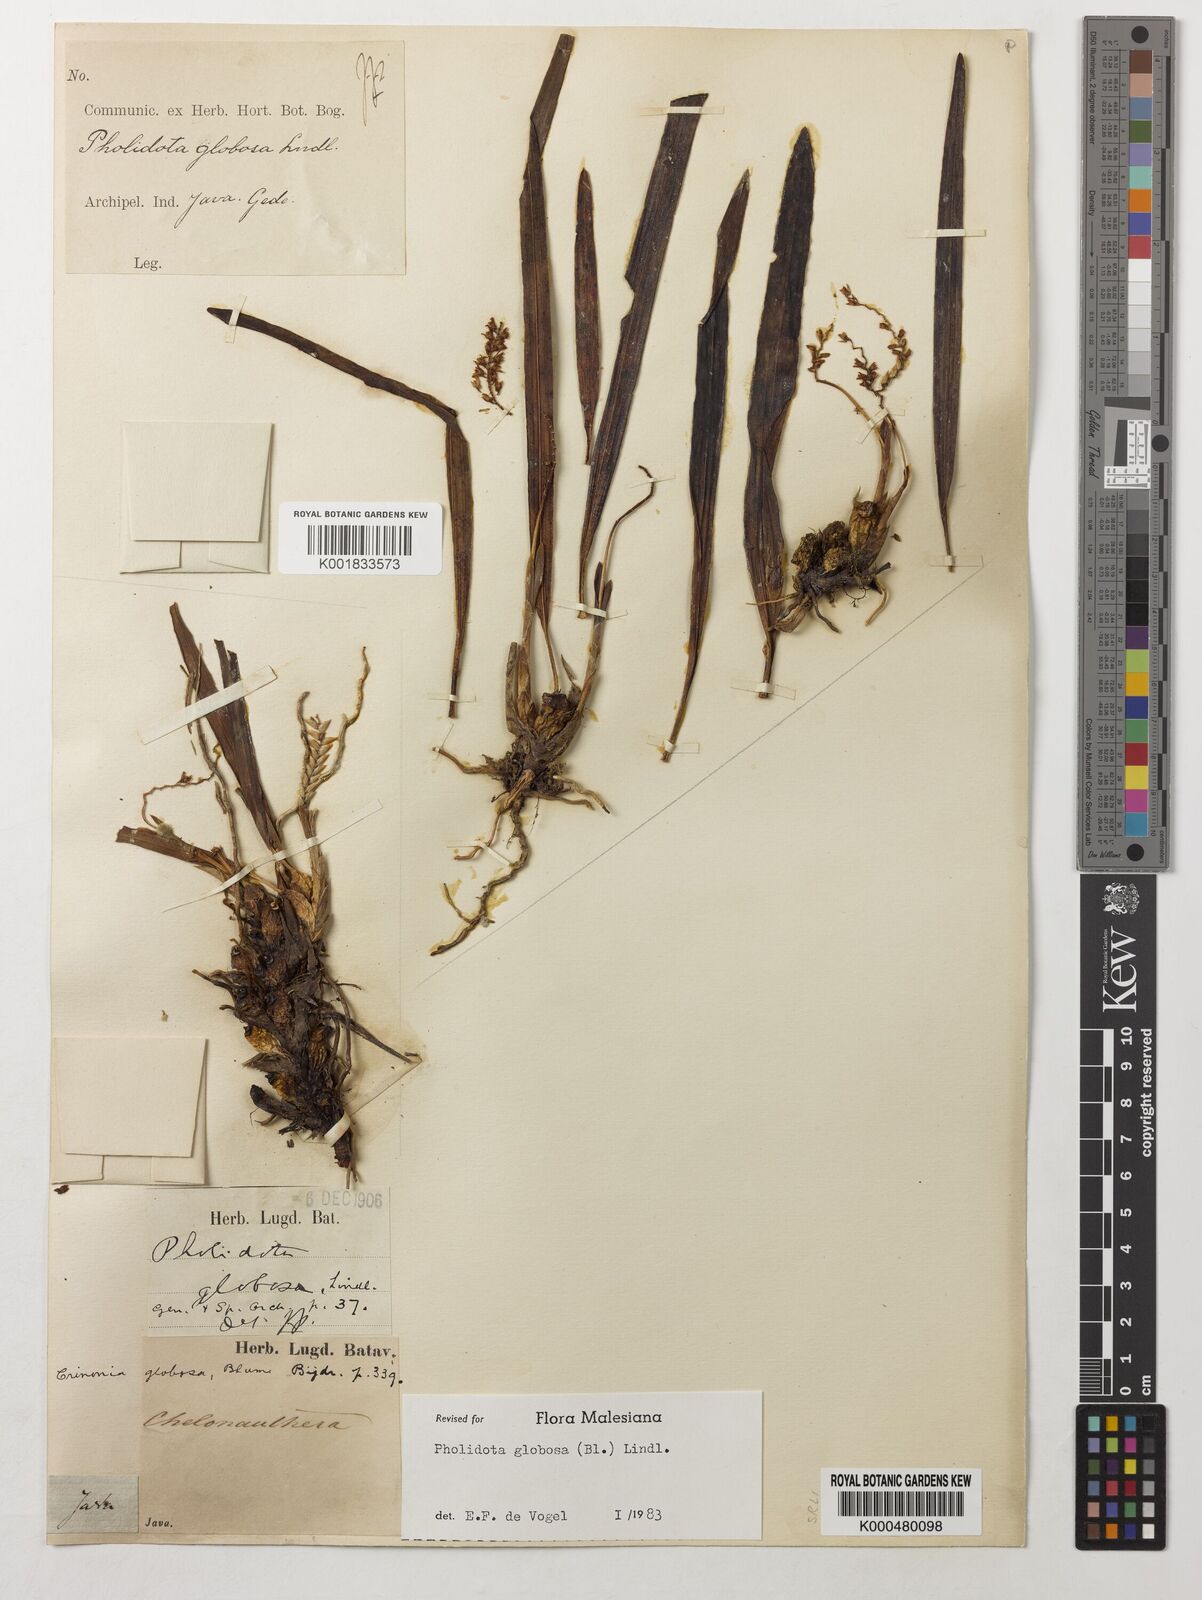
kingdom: Plantae
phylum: Tracheophyta
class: Liliopsida
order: Asparagales
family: Orchidaceae
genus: Coelogyne
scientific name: Coelogyne globosa
